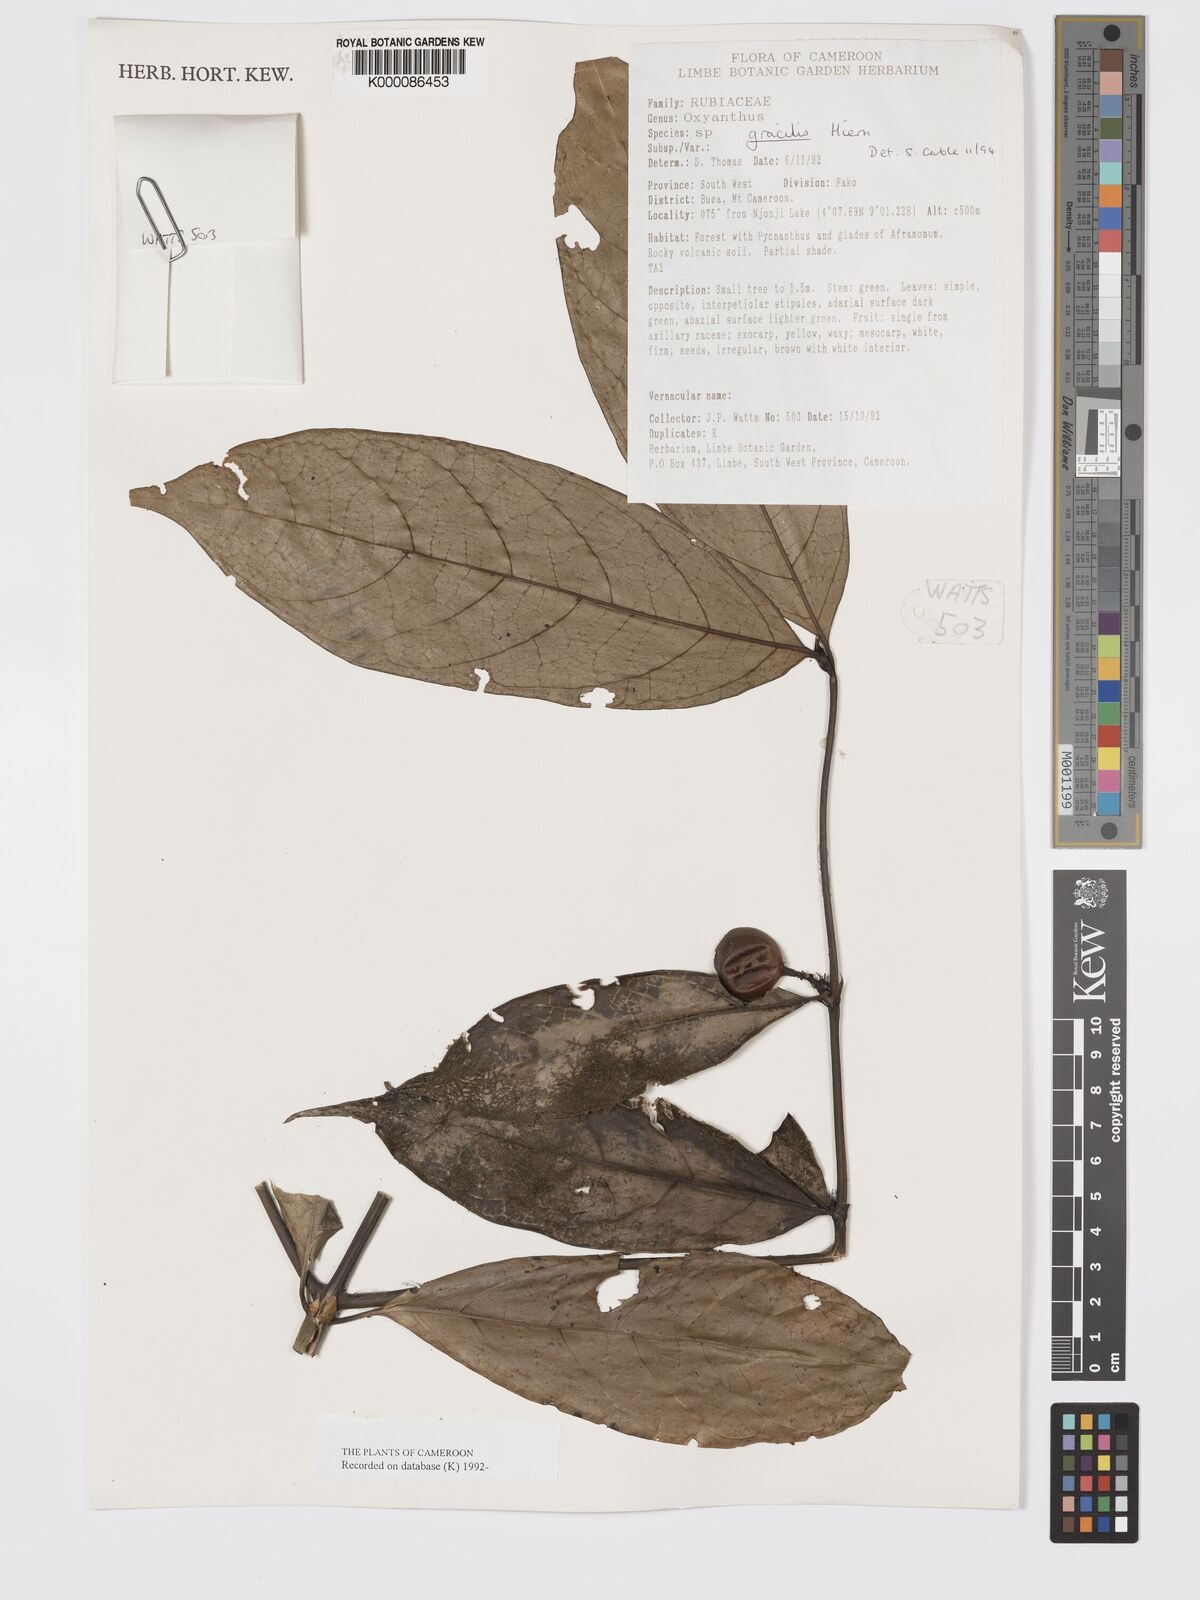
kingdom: Plantae
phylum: Tracheophyta
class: Magnoliopsida
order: Gentianales
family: Rubiaceae
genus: Oxyanthus
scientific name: Oxyanthus gracilis
